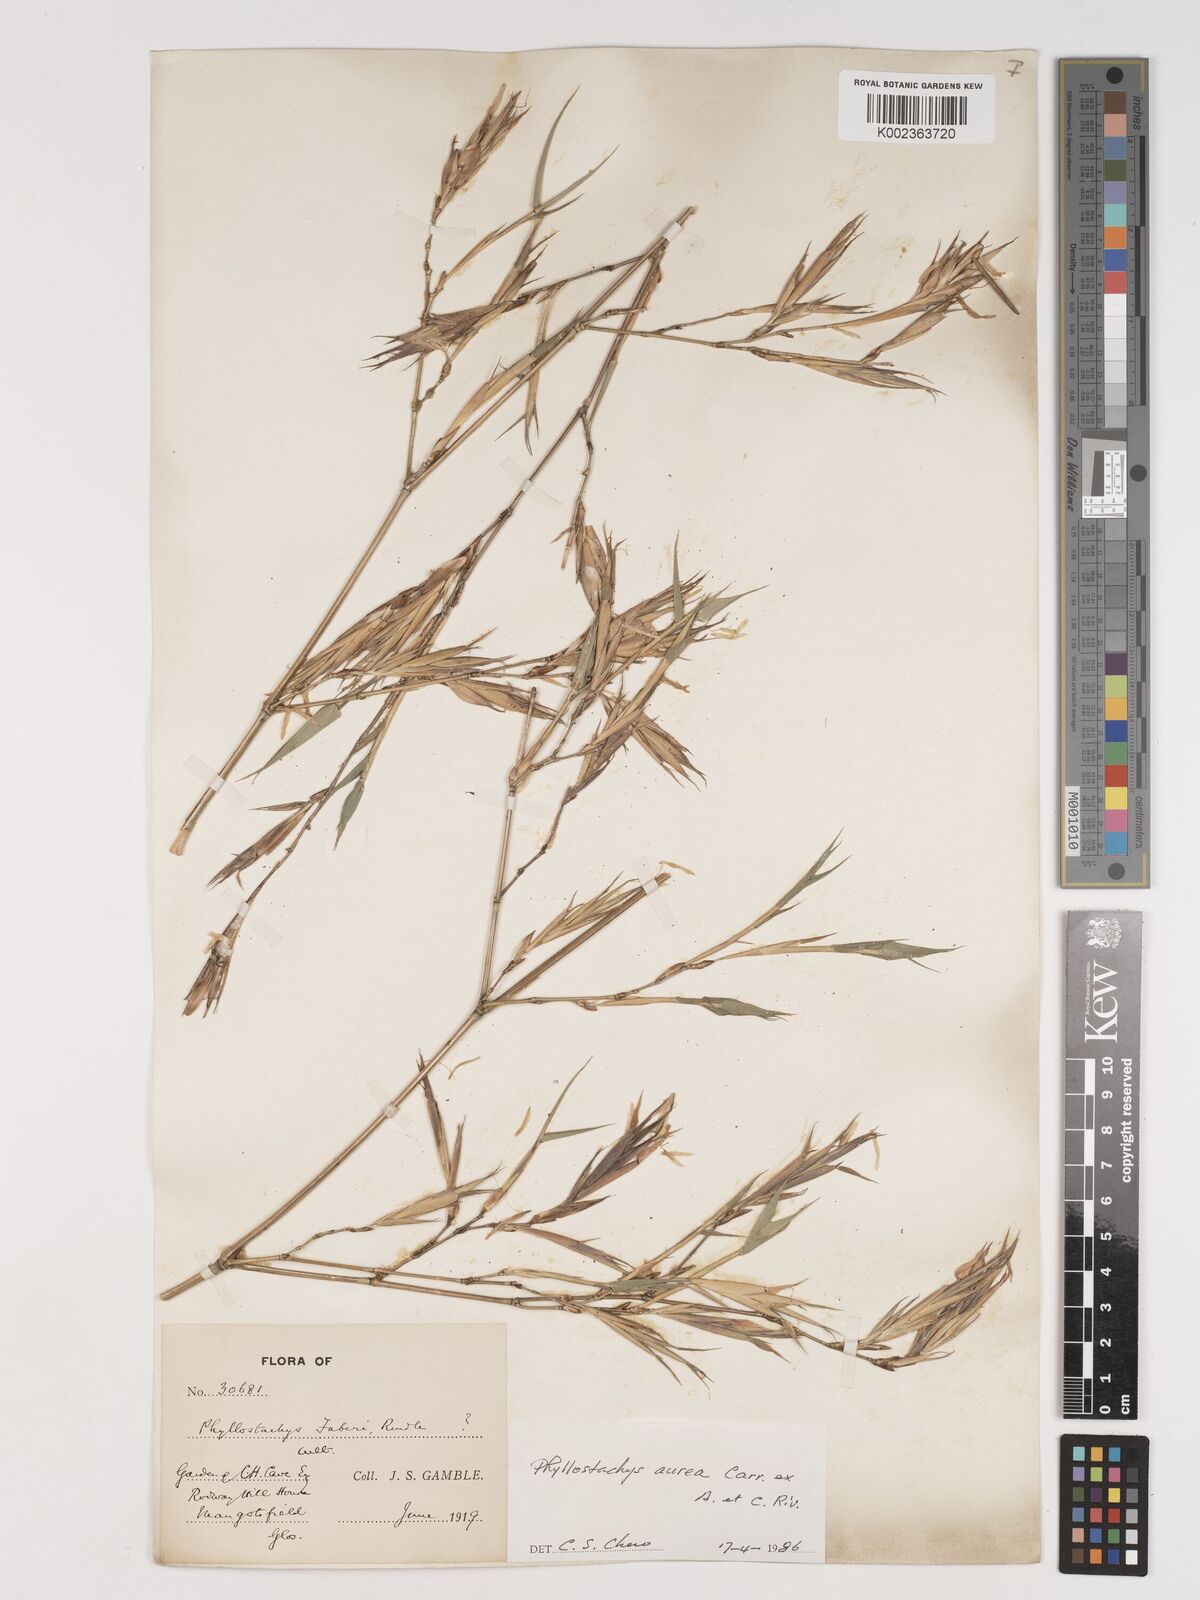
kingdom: Plantae
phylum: Tracheophyta
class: Liliopsida
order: Poales
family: Poaceae
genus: Phyllostachys
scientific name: Phyllostachys aurea
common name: Golden bamboo
